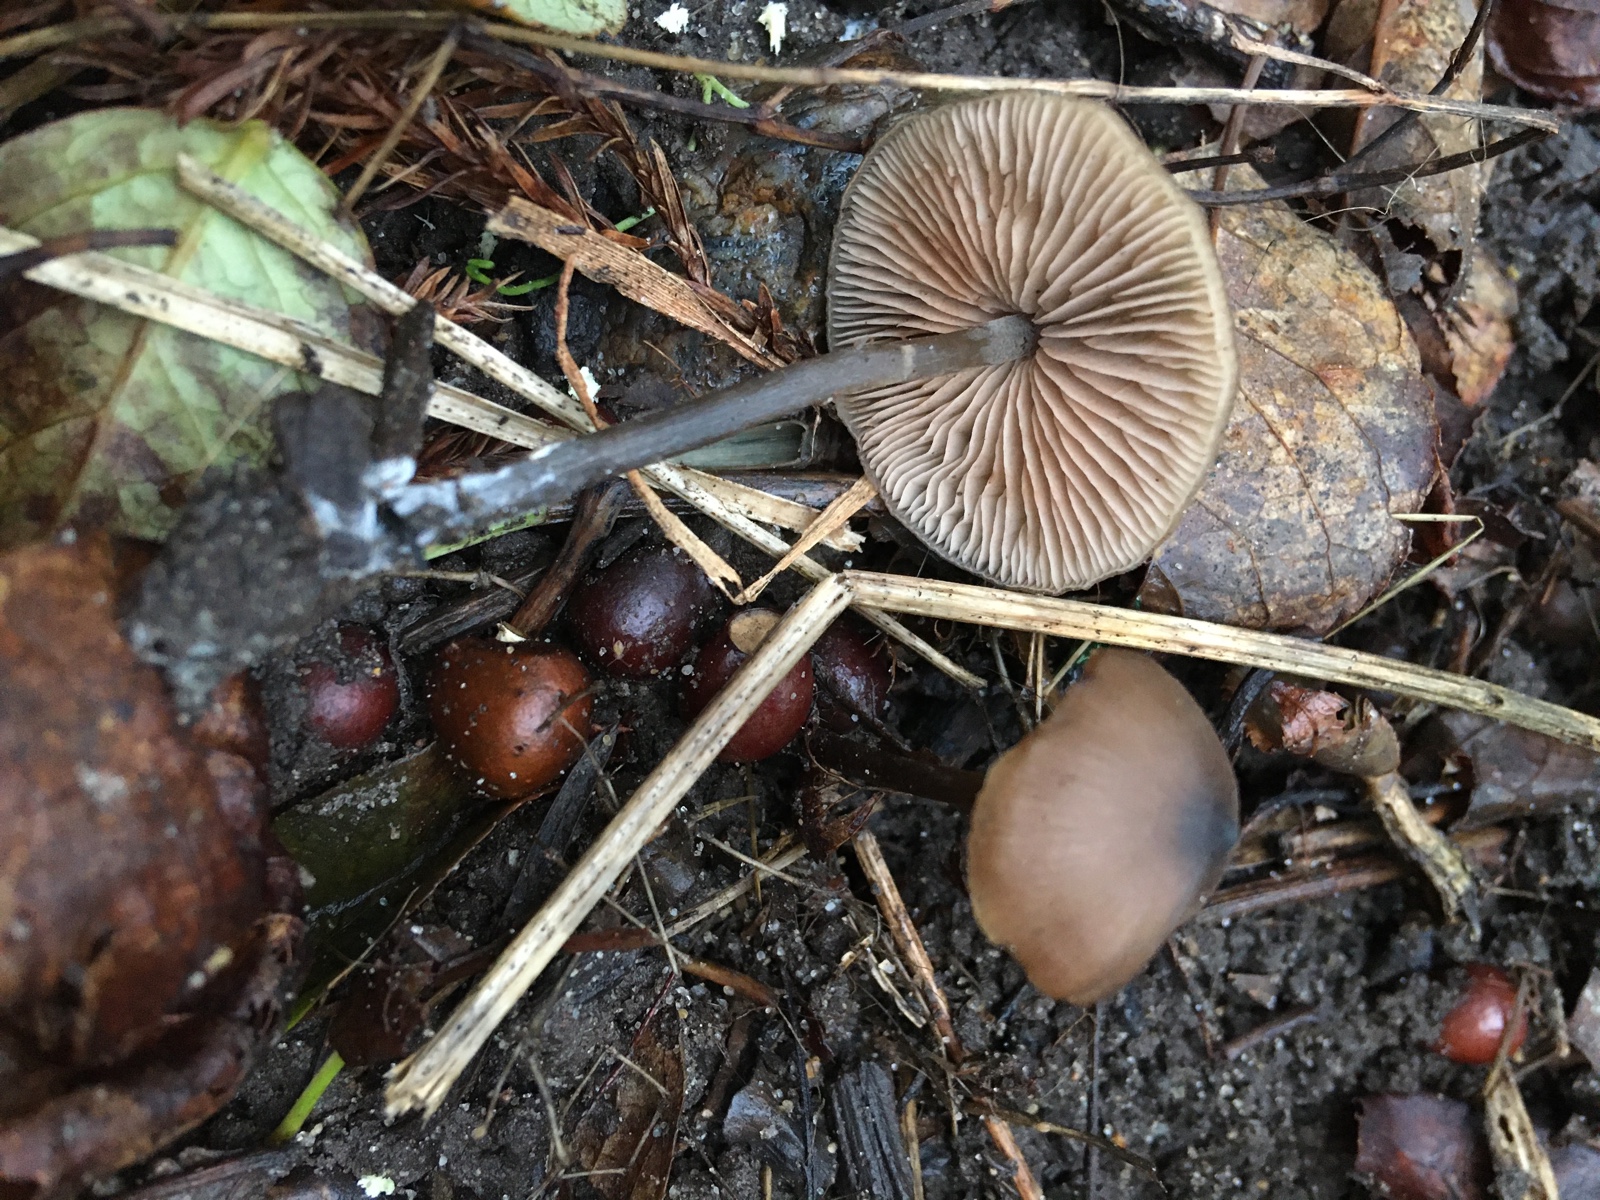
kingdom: Fungi
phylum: Basidiomycota
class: Agaricomycetes
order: Agaricales
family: Entolomataceae
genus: Entoloma
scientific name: Entoloma
